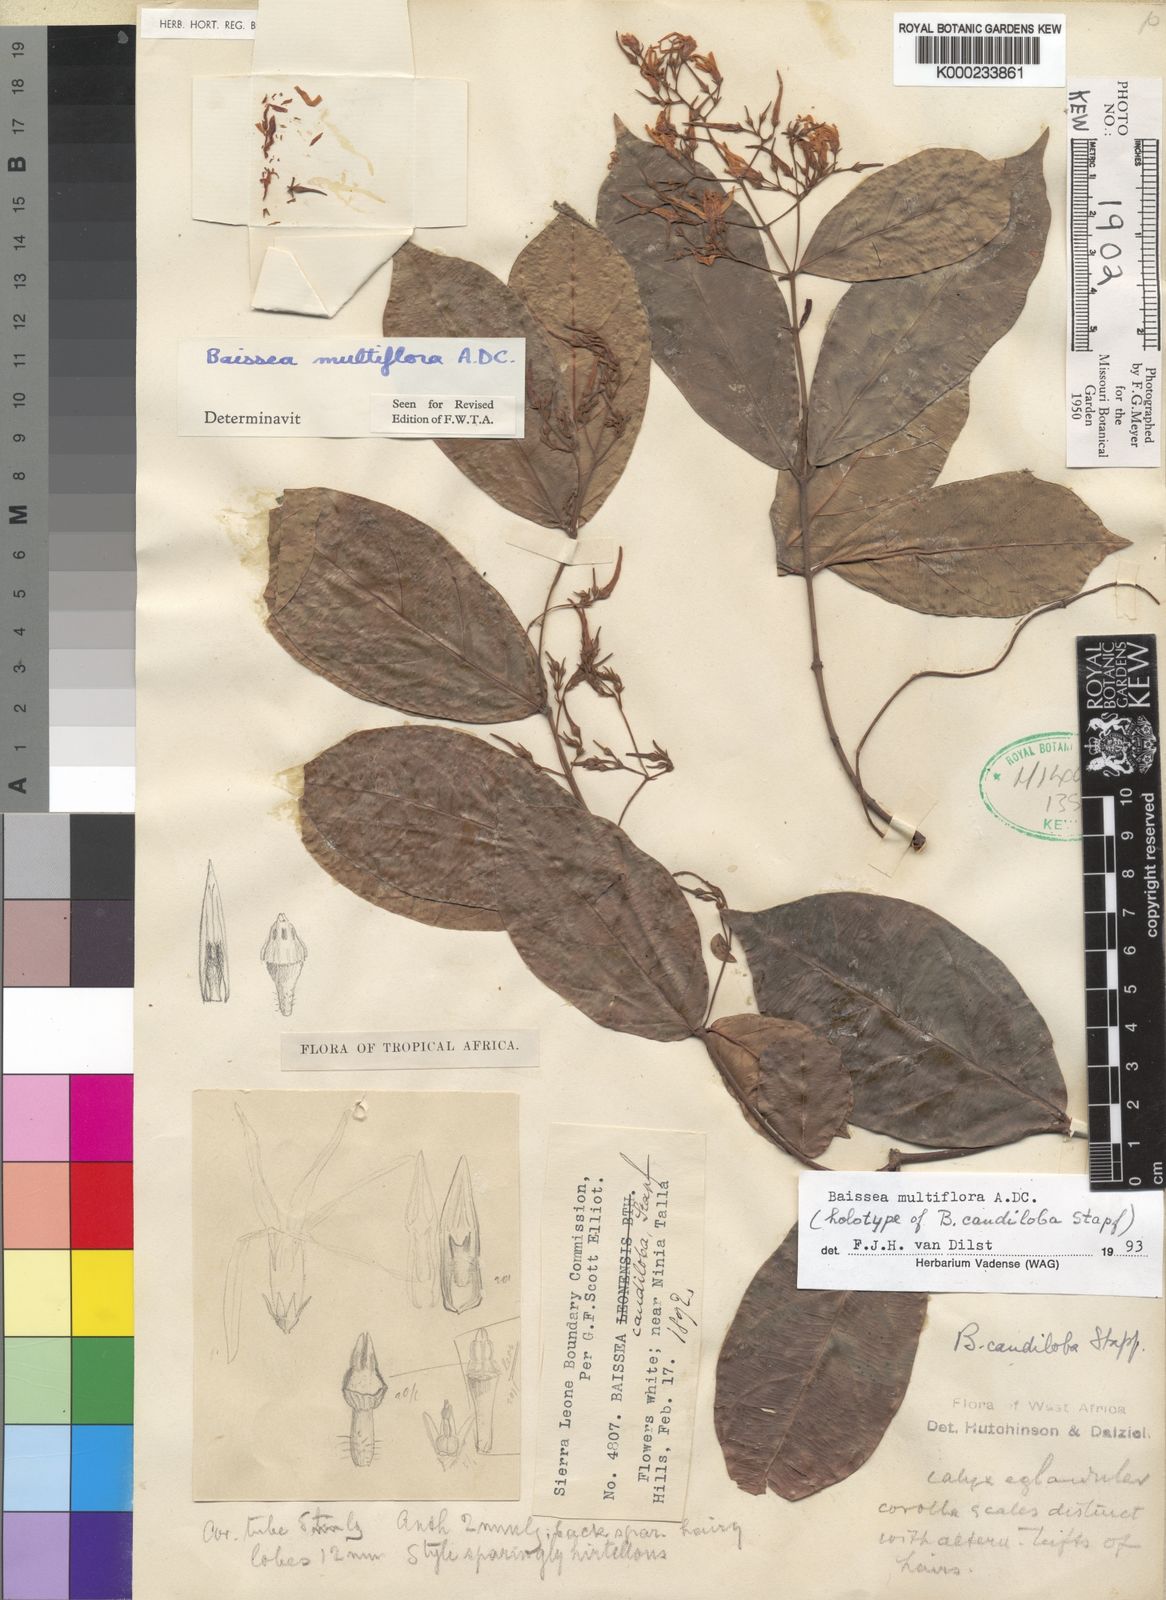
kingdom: Plantae
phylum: Tracheophyta
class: Magnoliopsida
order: Gentianales
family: Apocynaceae
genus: Baissea
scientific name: Baissea multiflora
